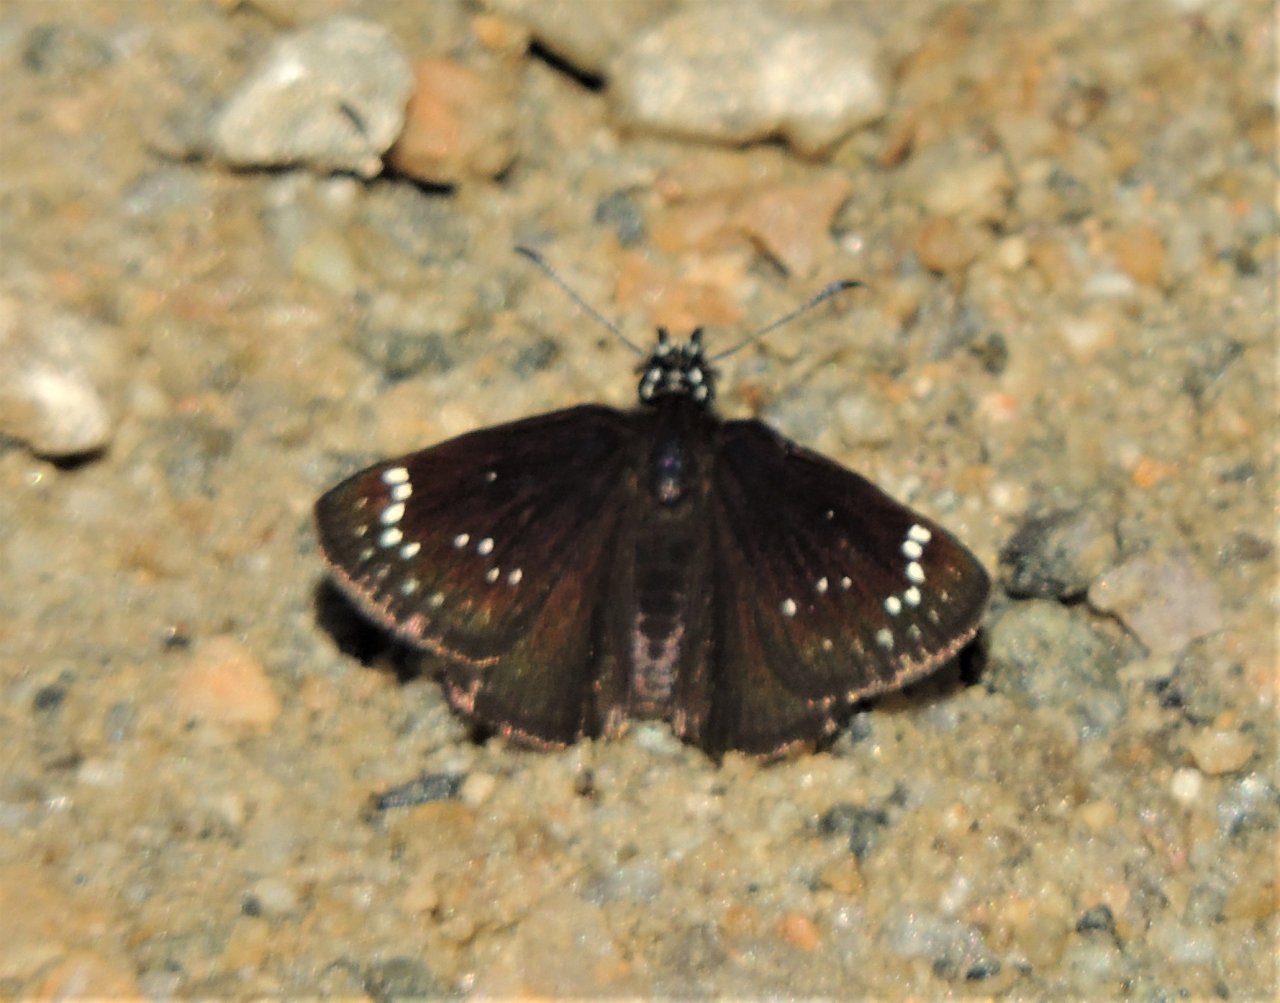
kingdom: Animalia
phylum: Arthropoda
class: Insecta
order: Lepidoptera
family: Hesperiidae
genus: Pholisora
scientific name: Pholisora catullus
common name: Common Sootywing
